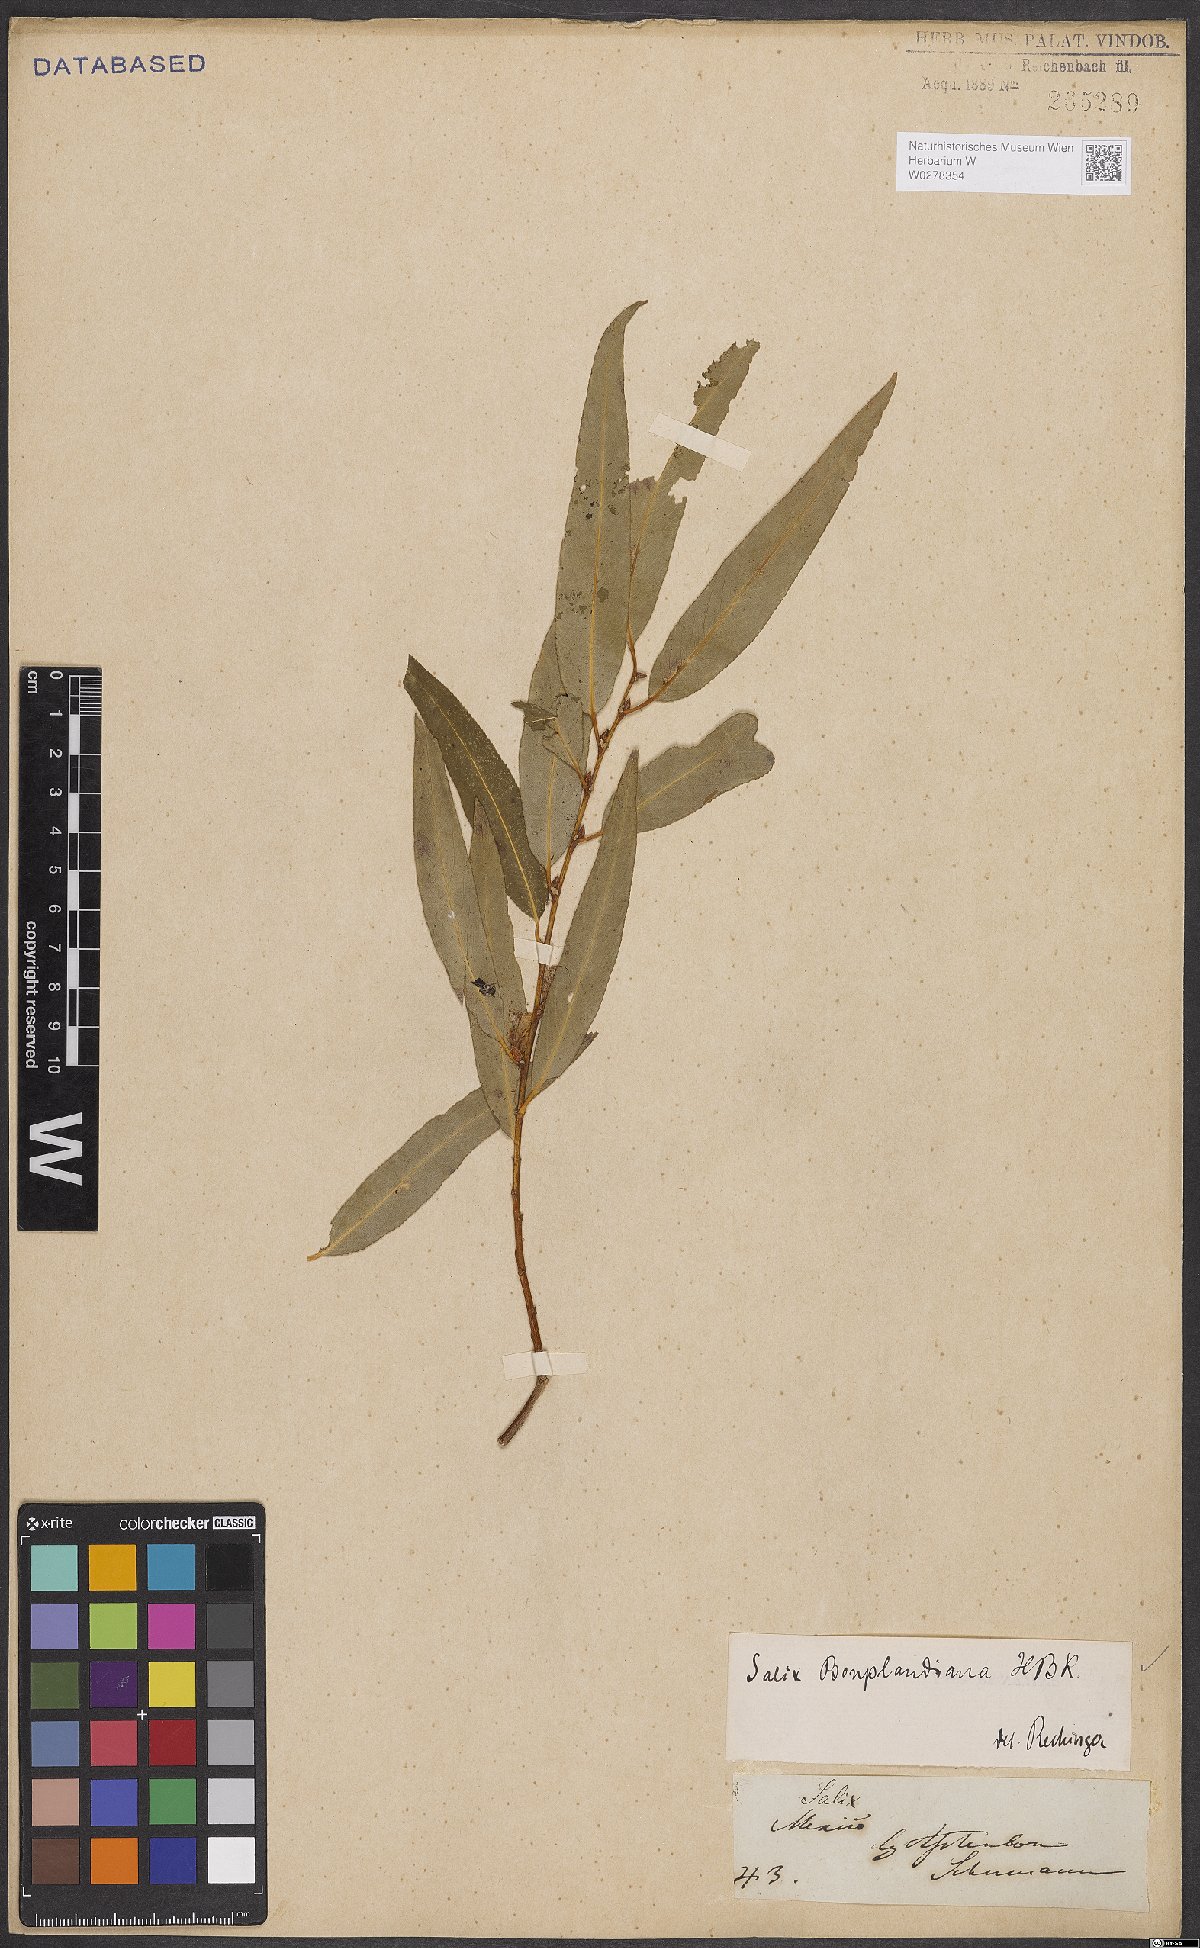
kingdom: Plantae
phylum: Tracheophyta
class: Magnoliopsida
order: Malpighiales
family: Salicaceae
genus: Salix
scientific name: Salix bonplandiana
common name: Bonpland’s willow
